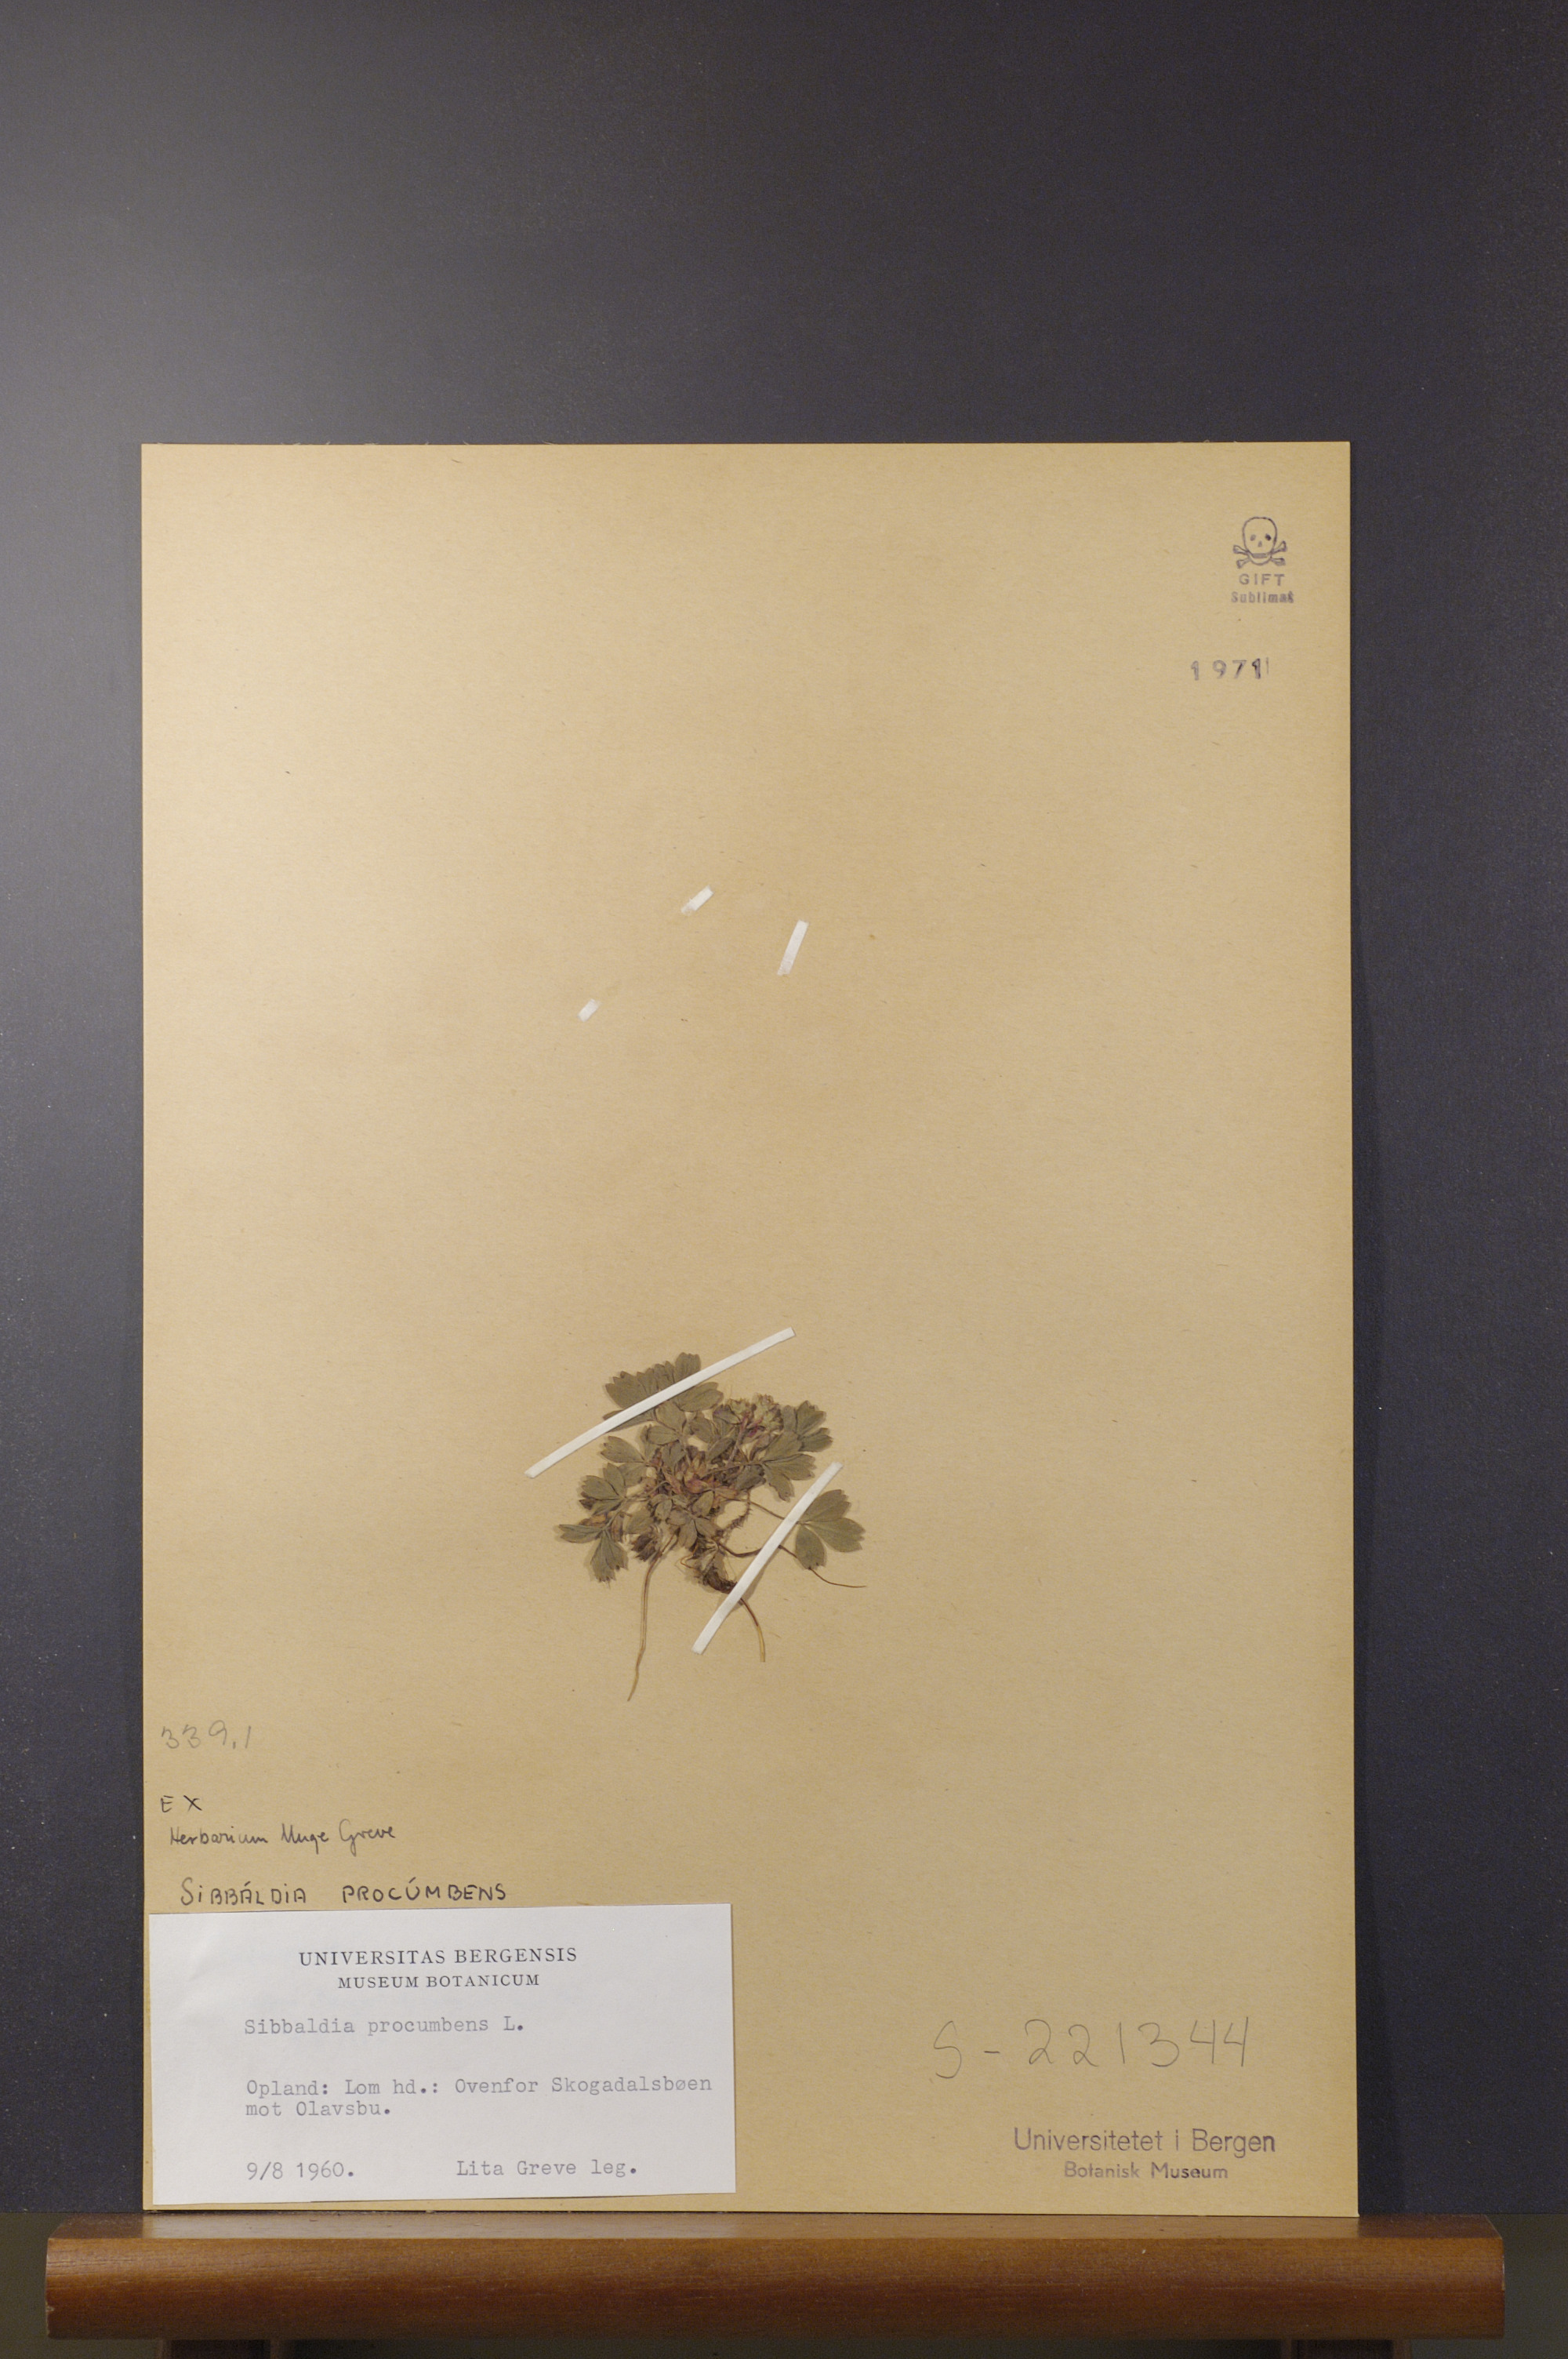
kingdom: Plantae
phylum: Tracheophyta
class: Magnoliopsida
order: Rosales
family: Rosaceae
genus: Sibbaldia
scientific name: Sibbaldia procumbens
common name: Creeping sibbaldia
